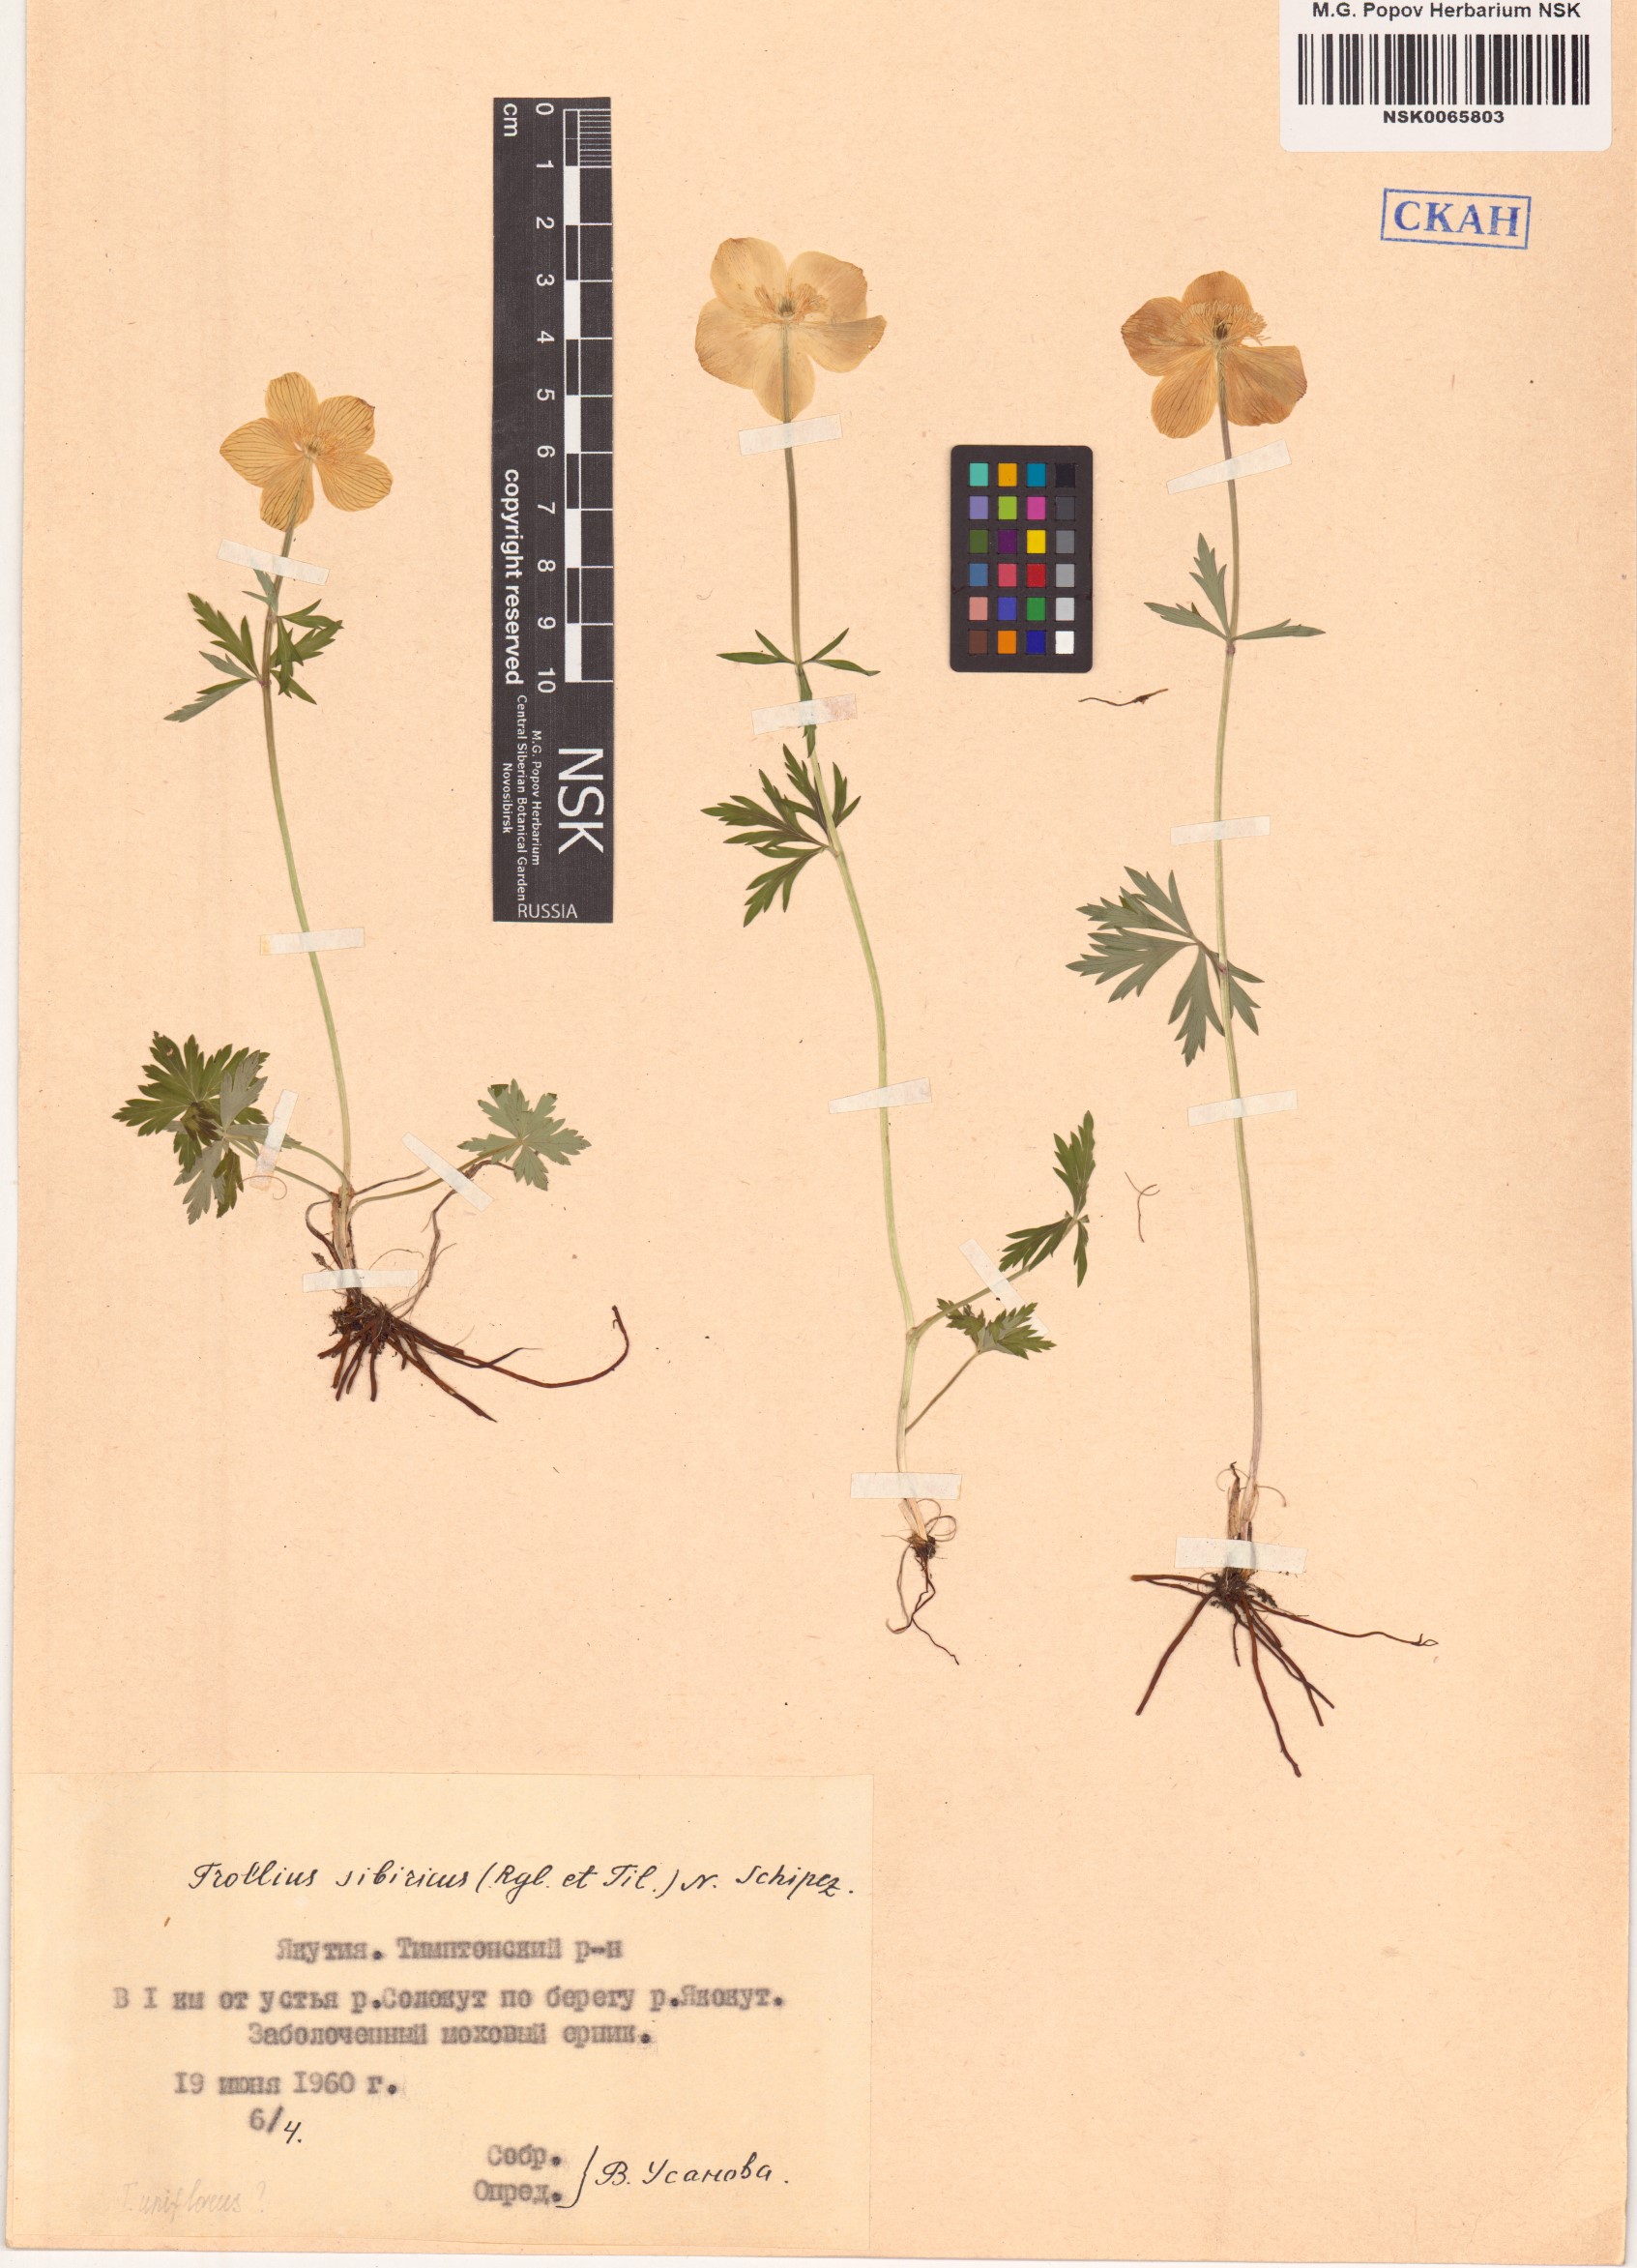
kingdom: Plantae
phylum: Tracheophyta
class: Magnoliopsida
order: Ranunculales
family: Ranunculaceae
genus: Trollius
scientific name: Trollius sibiricus
